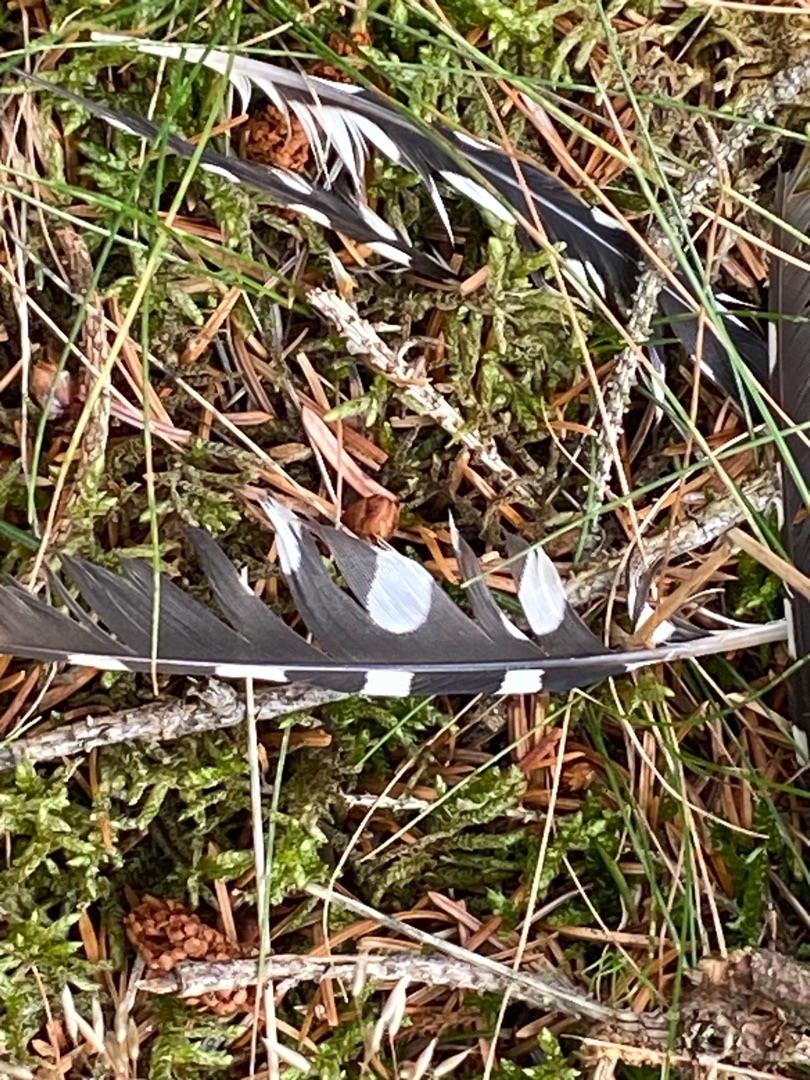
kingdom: Animalia
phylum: Chordata
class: Aves
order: Piciformes
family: Picidae
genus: Dendrocopos
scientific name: Dendrocopos major
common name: Stor flagspætte
